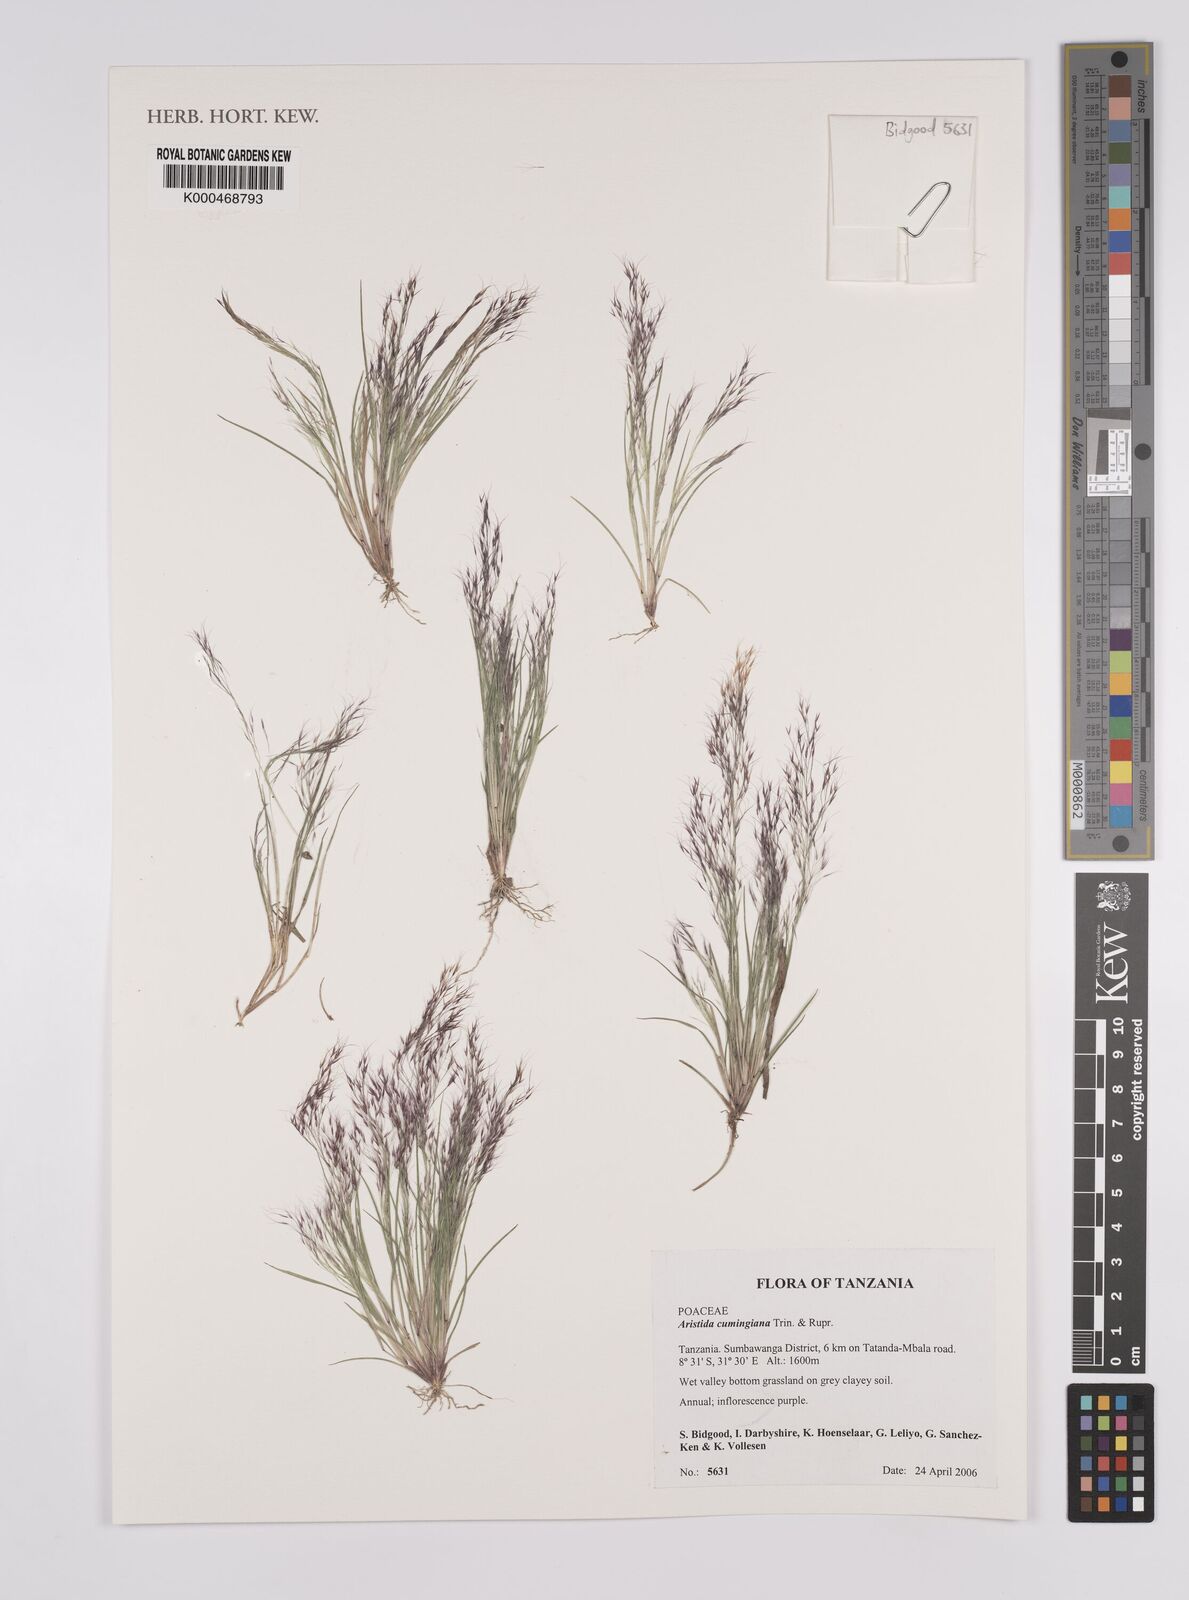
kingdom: Plantae
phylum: Tracheophyta
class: Liliopsida
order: Poales
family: Poaceae
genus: Aristida
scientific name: Aristida cumingiana
